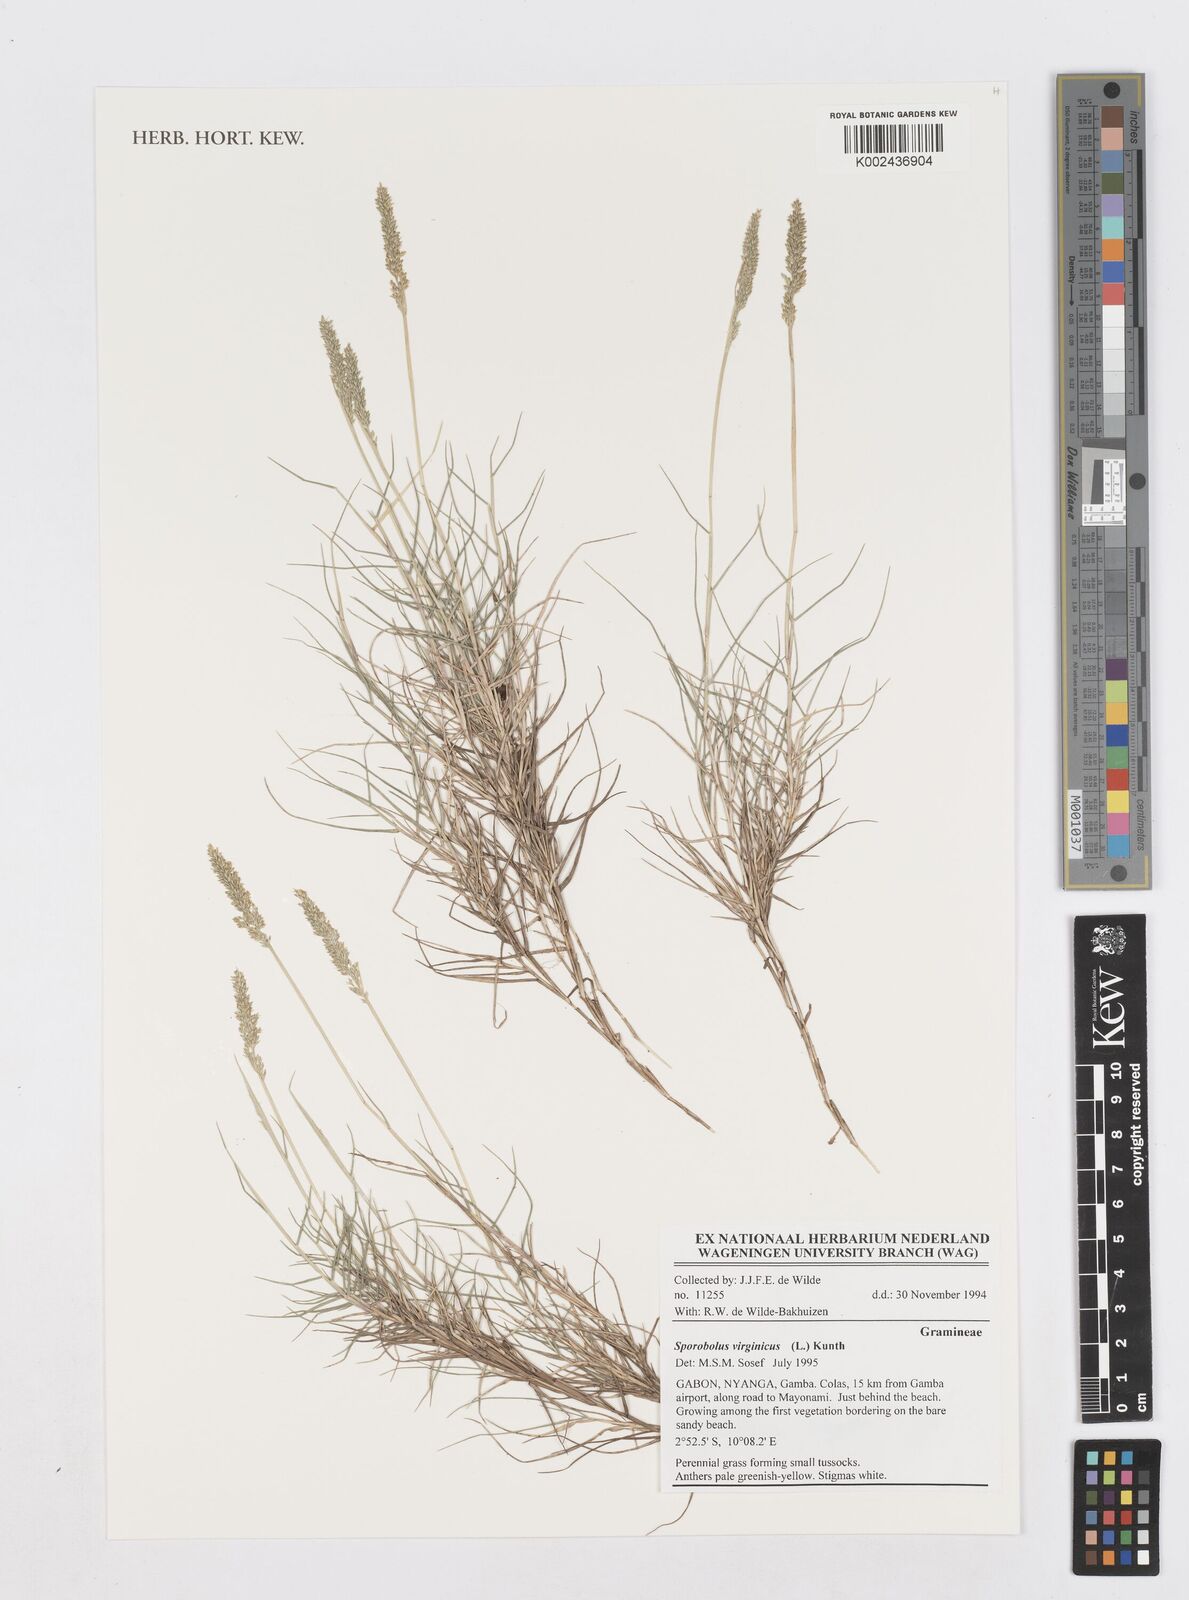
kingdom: Plantae
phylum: Tracheophyta
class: Liliopsida
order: Poales
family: Poaceae
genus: Sporobolus
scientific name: Sporobolus virginicus
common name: Beach dropseed
